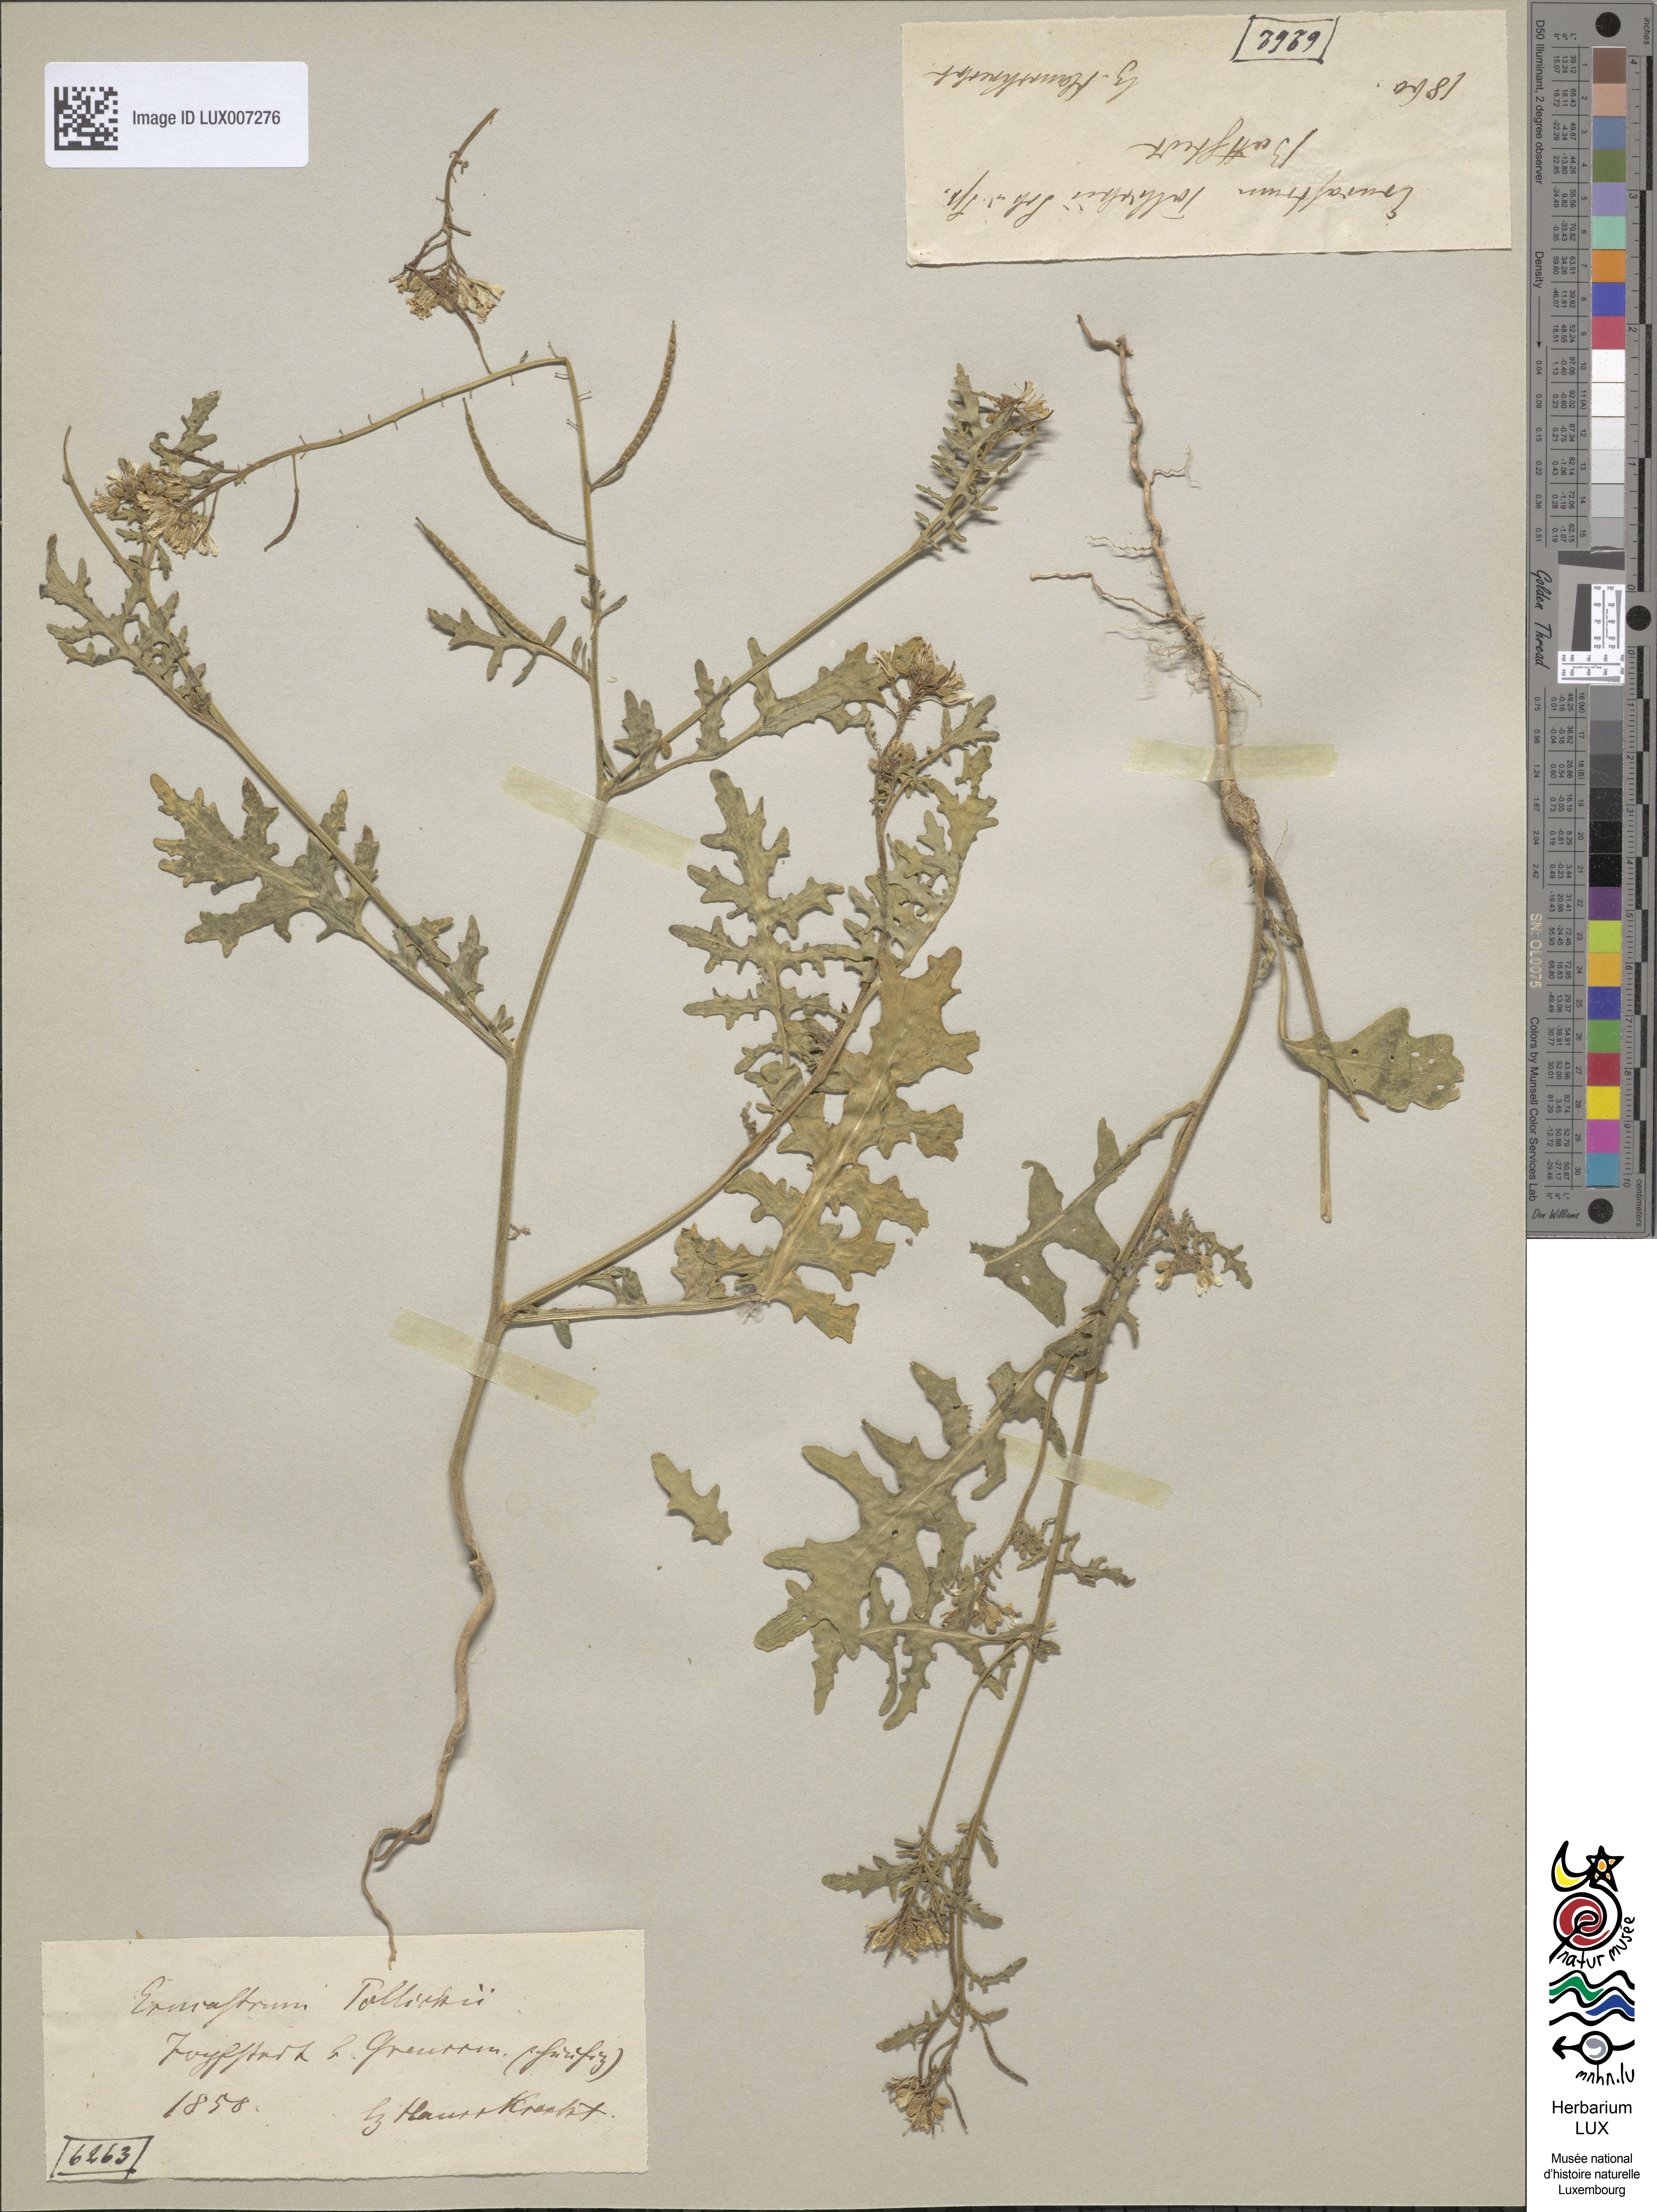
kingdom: Plantae
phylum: Tracheophyta
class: Magnoliopsida
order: Brassicales
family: Brassicaceae
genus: Erucastrum
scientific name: Erucastrum gallicum
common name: Hairy rocket
